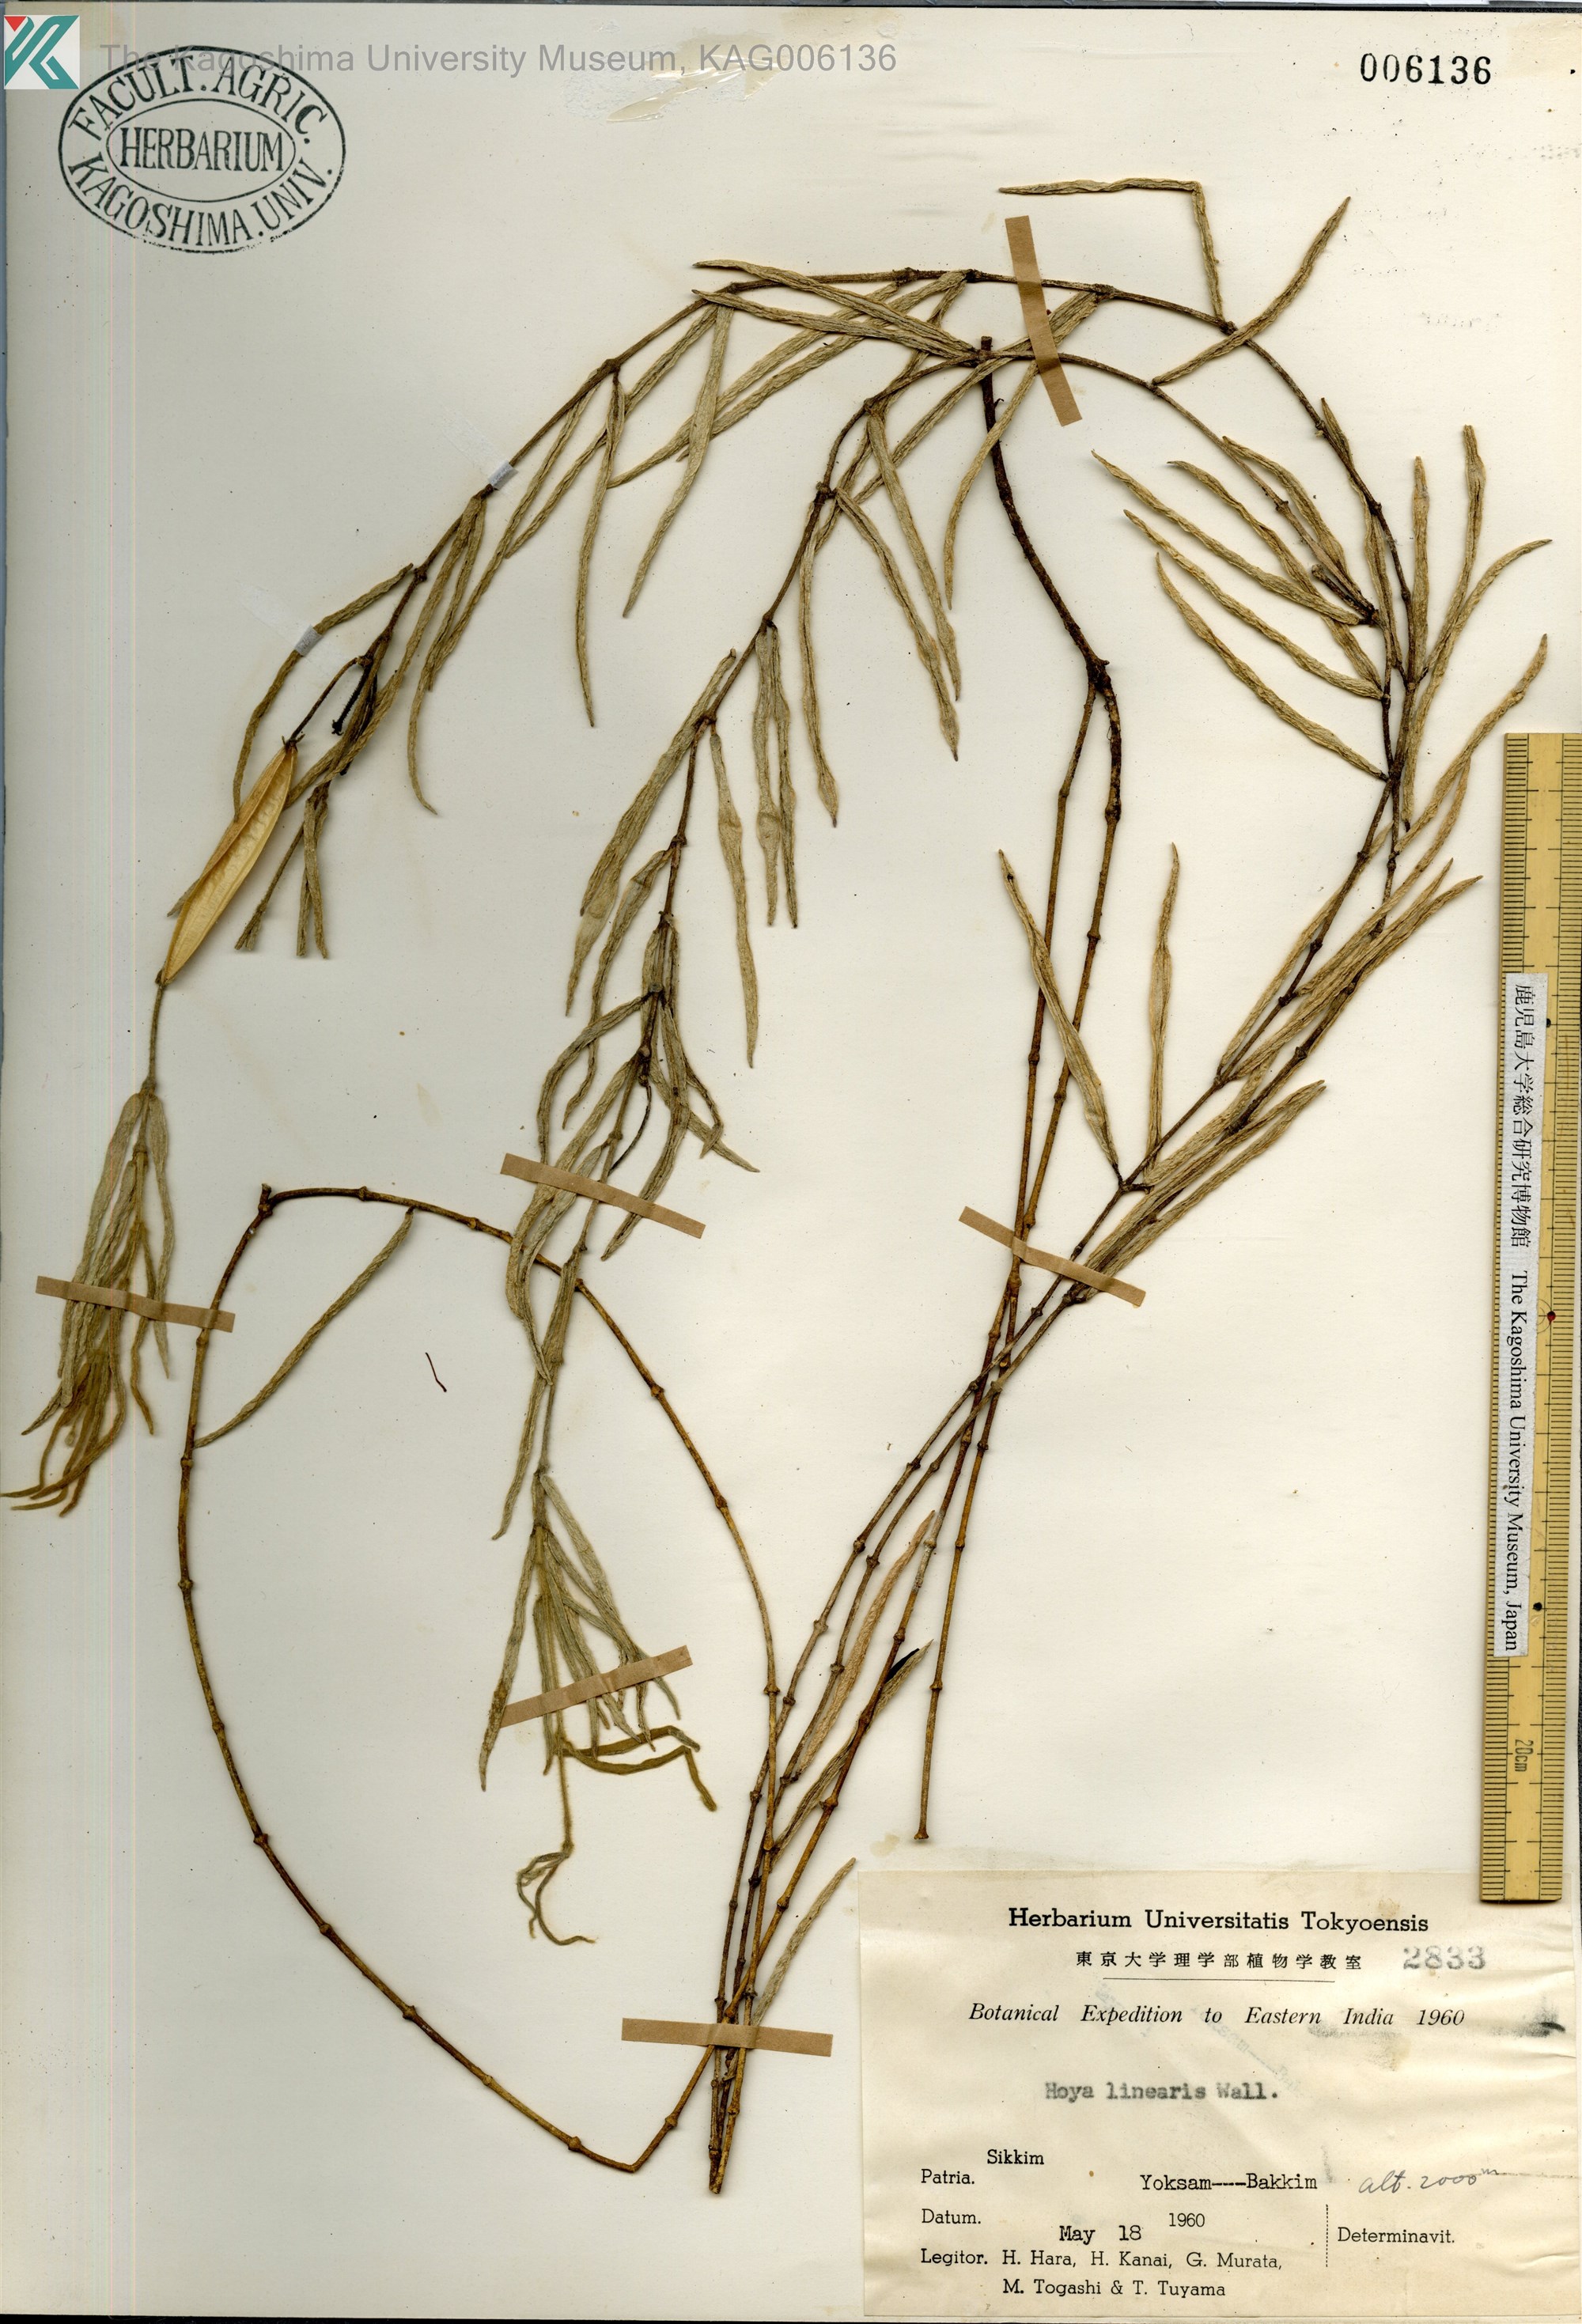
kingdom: Plantae
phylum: Tracheophyta
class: Magnoliopsida
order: Gentianales
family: Apocynaceae
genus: Hoya
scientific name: Hoya linearis
